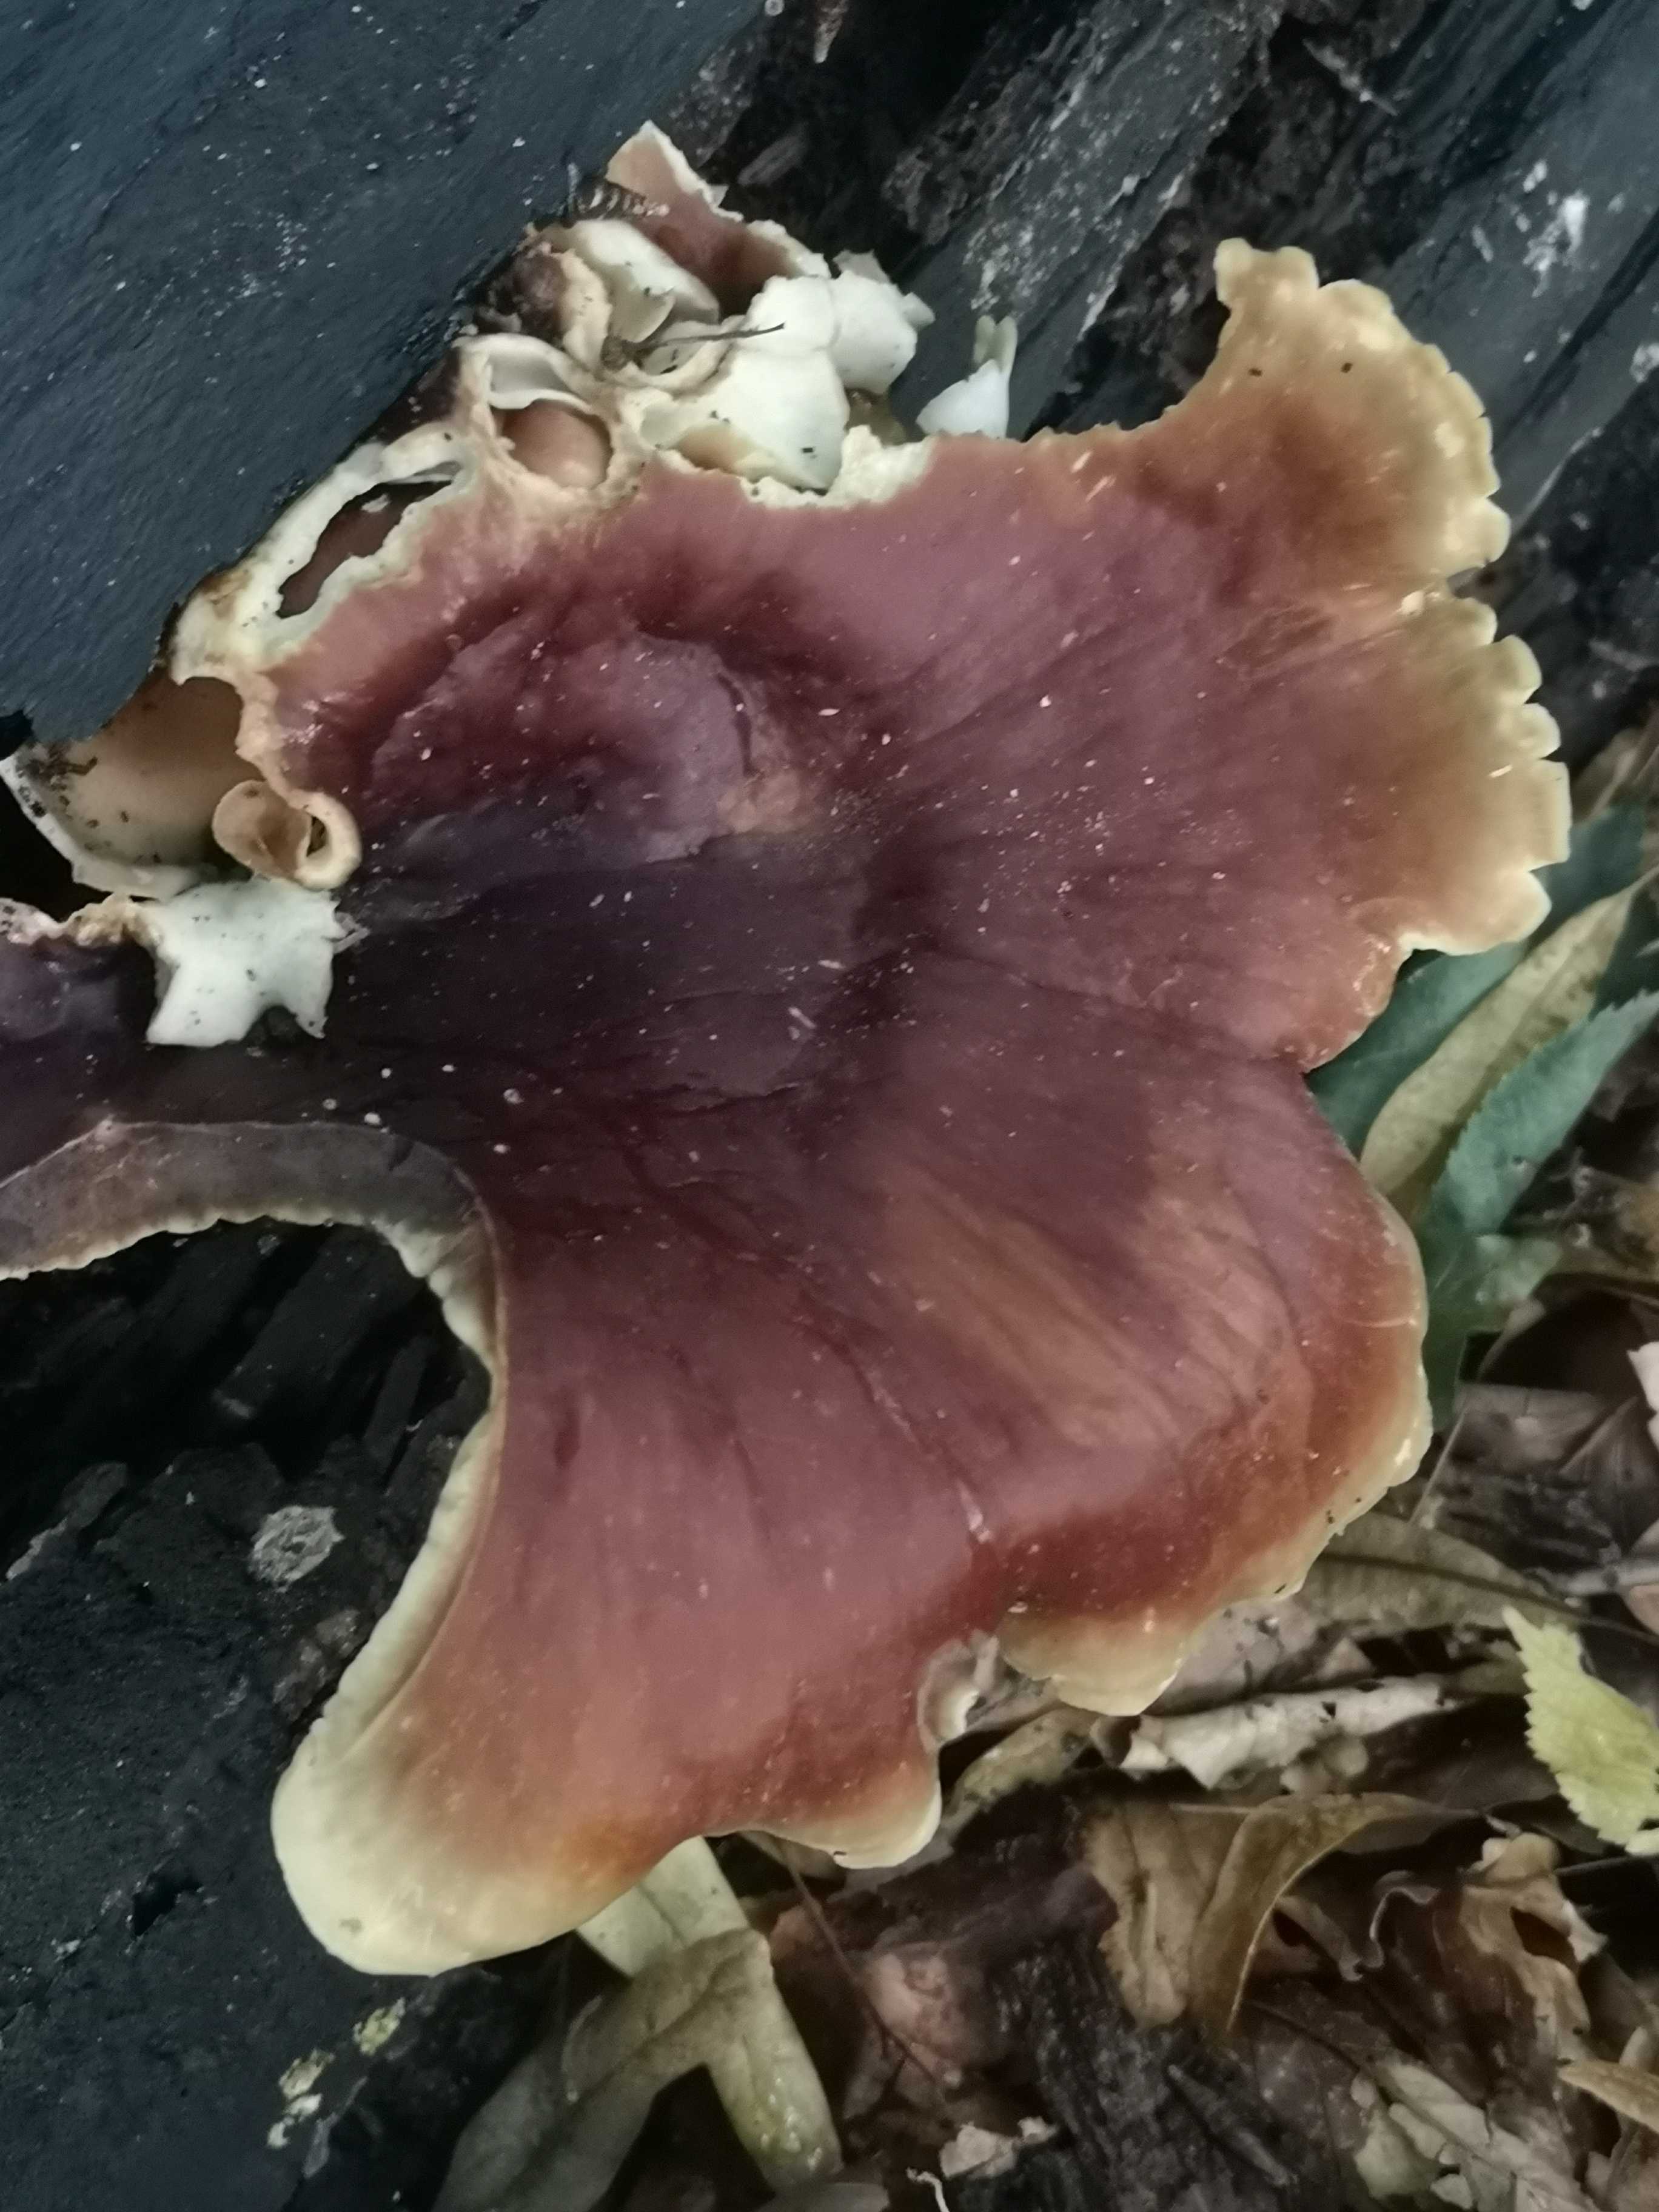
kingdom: Fungi
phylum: Basidiomycota
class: Agaricomycetes
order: Polyporales
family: Polyporaceae
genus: Picipes
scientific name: Picipes badius
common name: kastaniebrun stilkporesvamp
